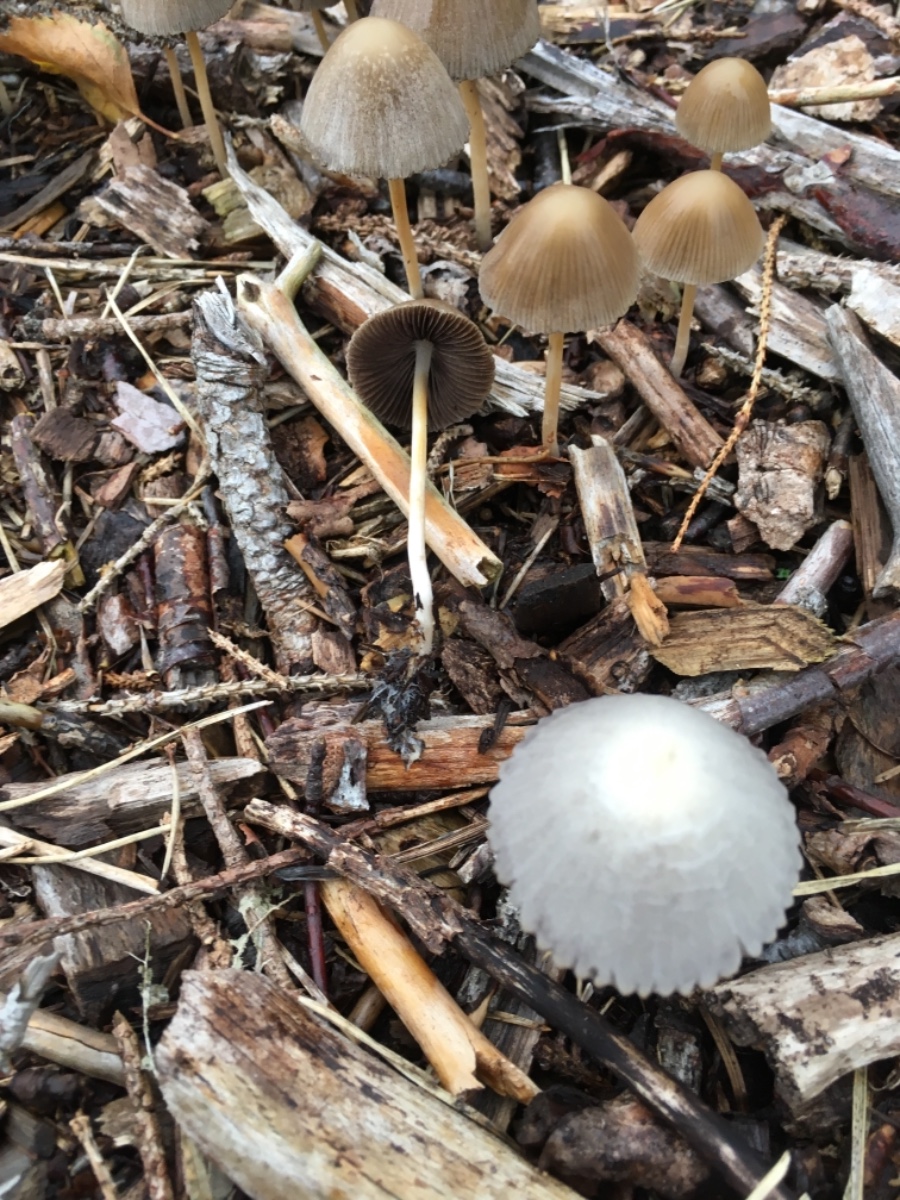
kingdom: Fungi
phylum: Basidiomycota
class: Agaricomycetes
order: Agaricales
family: Psathyrellaceae
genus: Psathyrella
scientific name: Psathyrella
